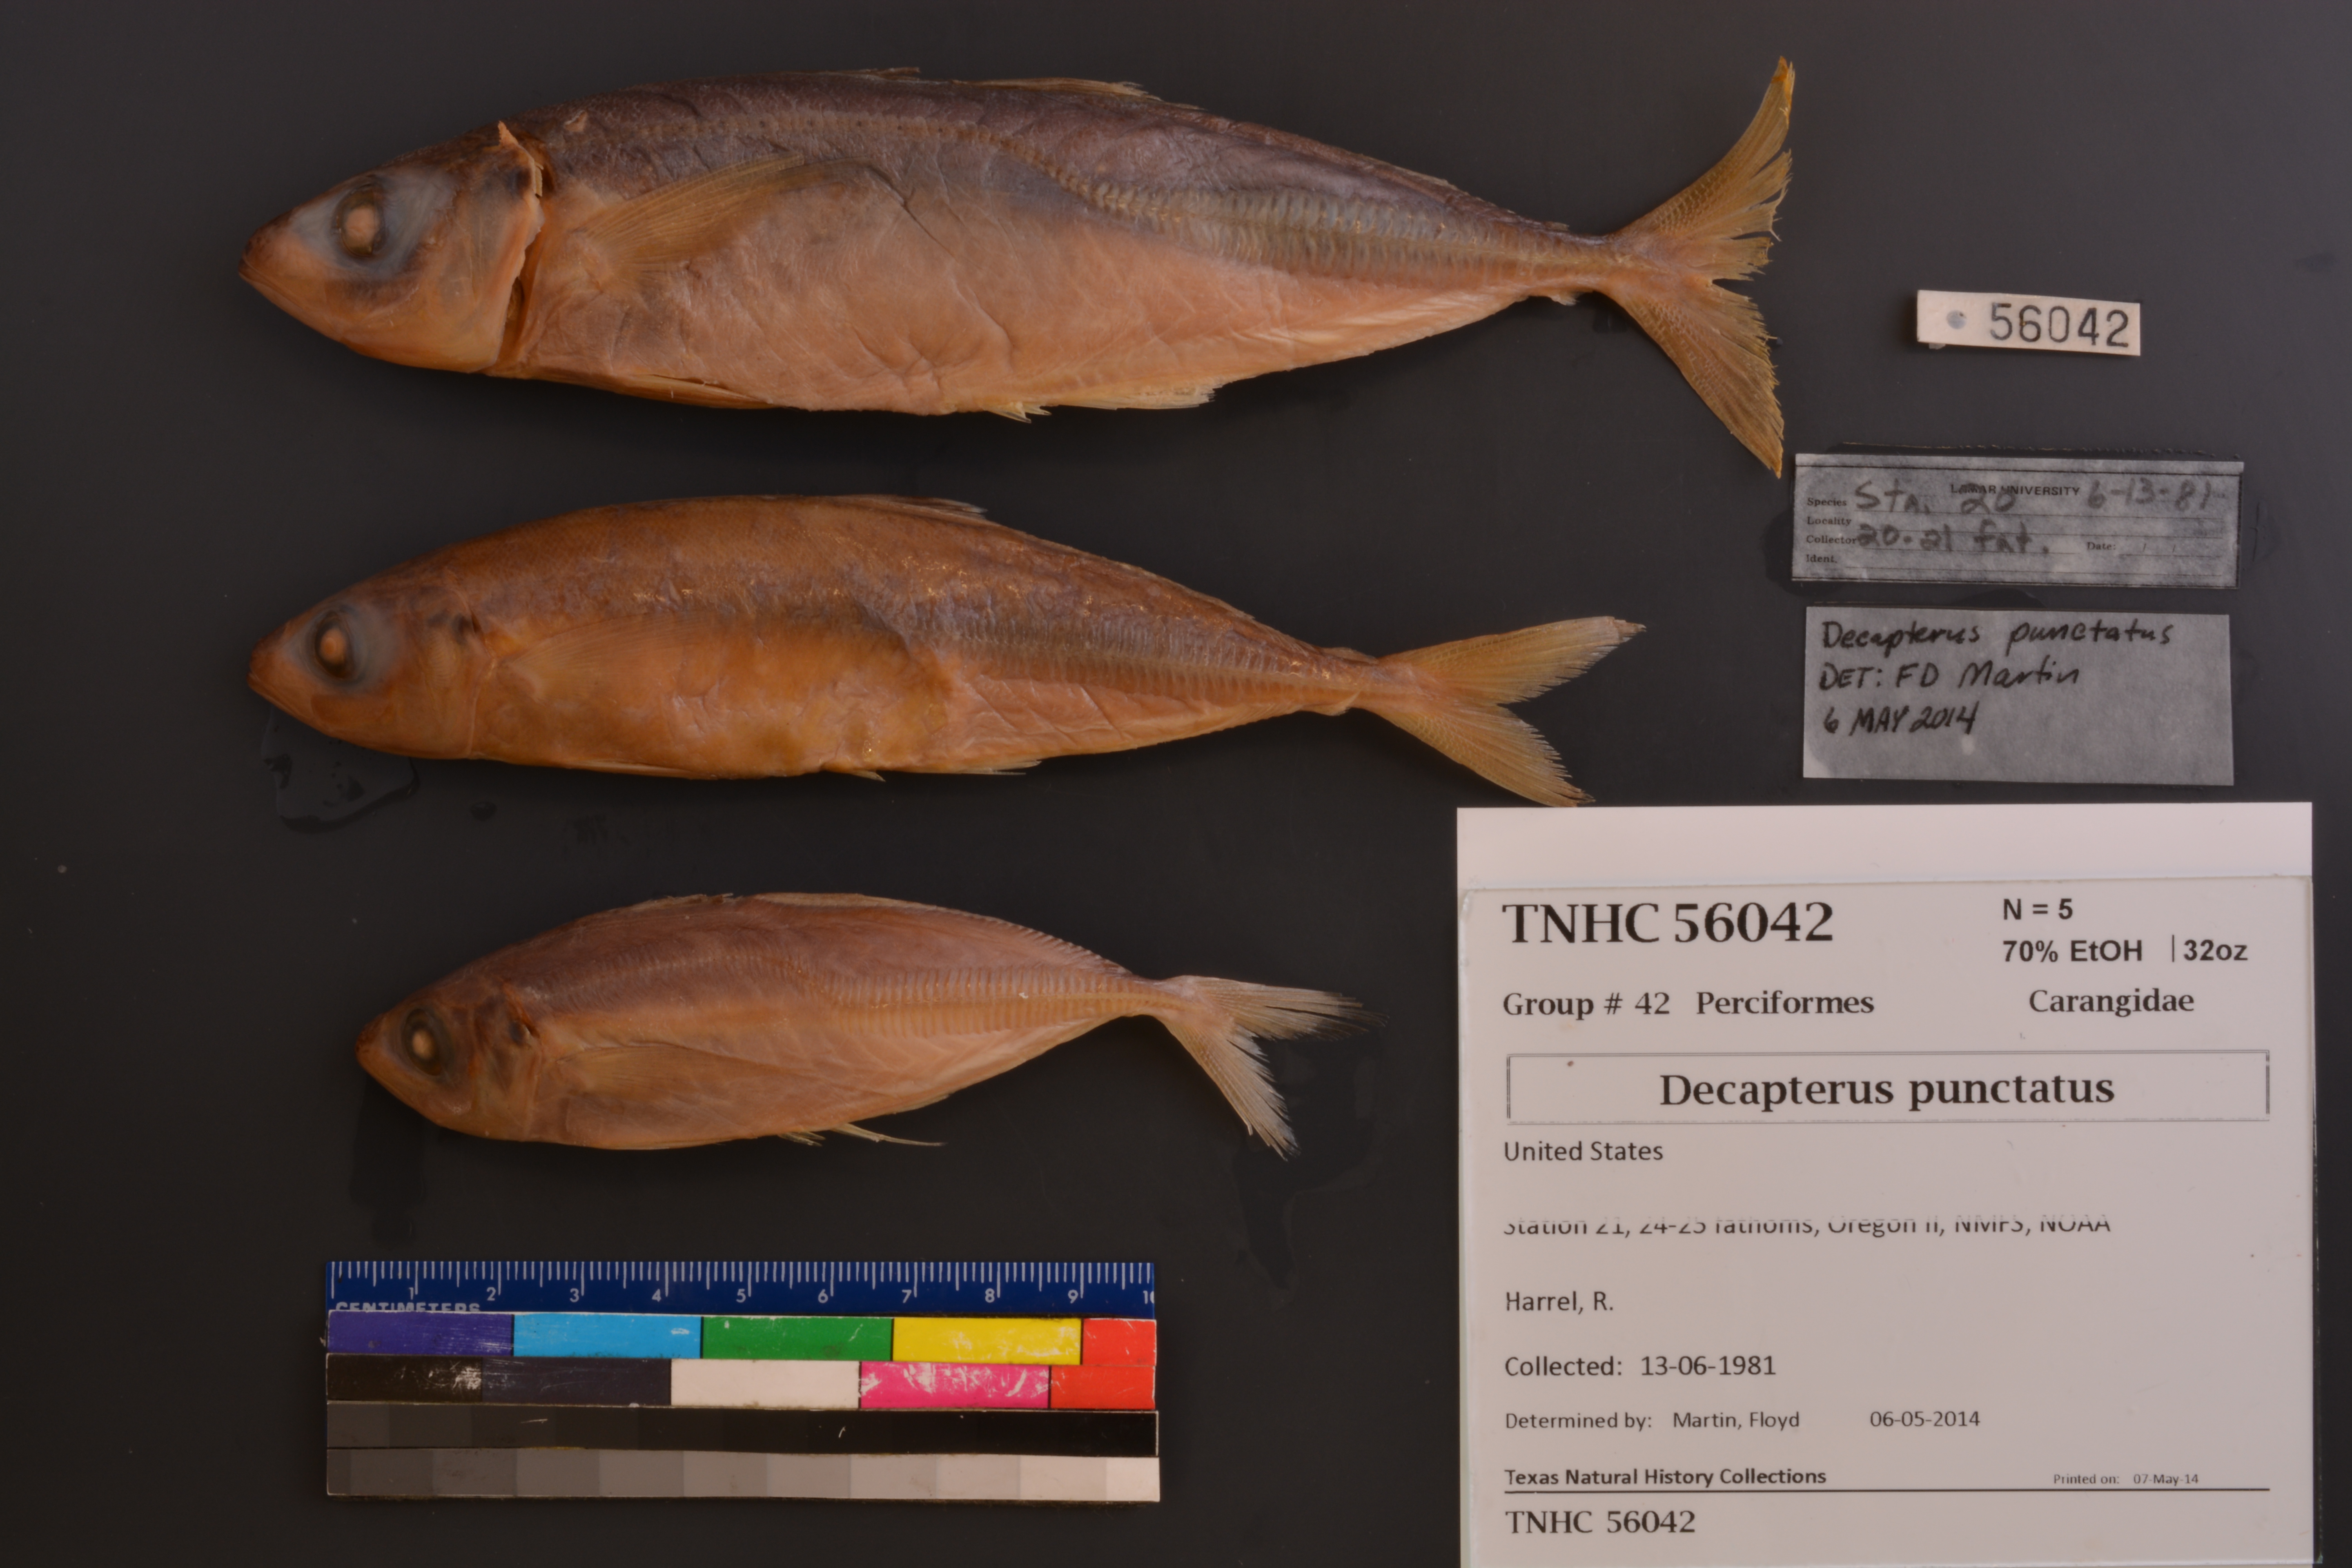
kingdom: Animalia
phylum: Chordata
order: Perciformes
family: Carangidae
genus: Decapterus
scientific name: Decapterus punctatus
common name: Cigarfish
